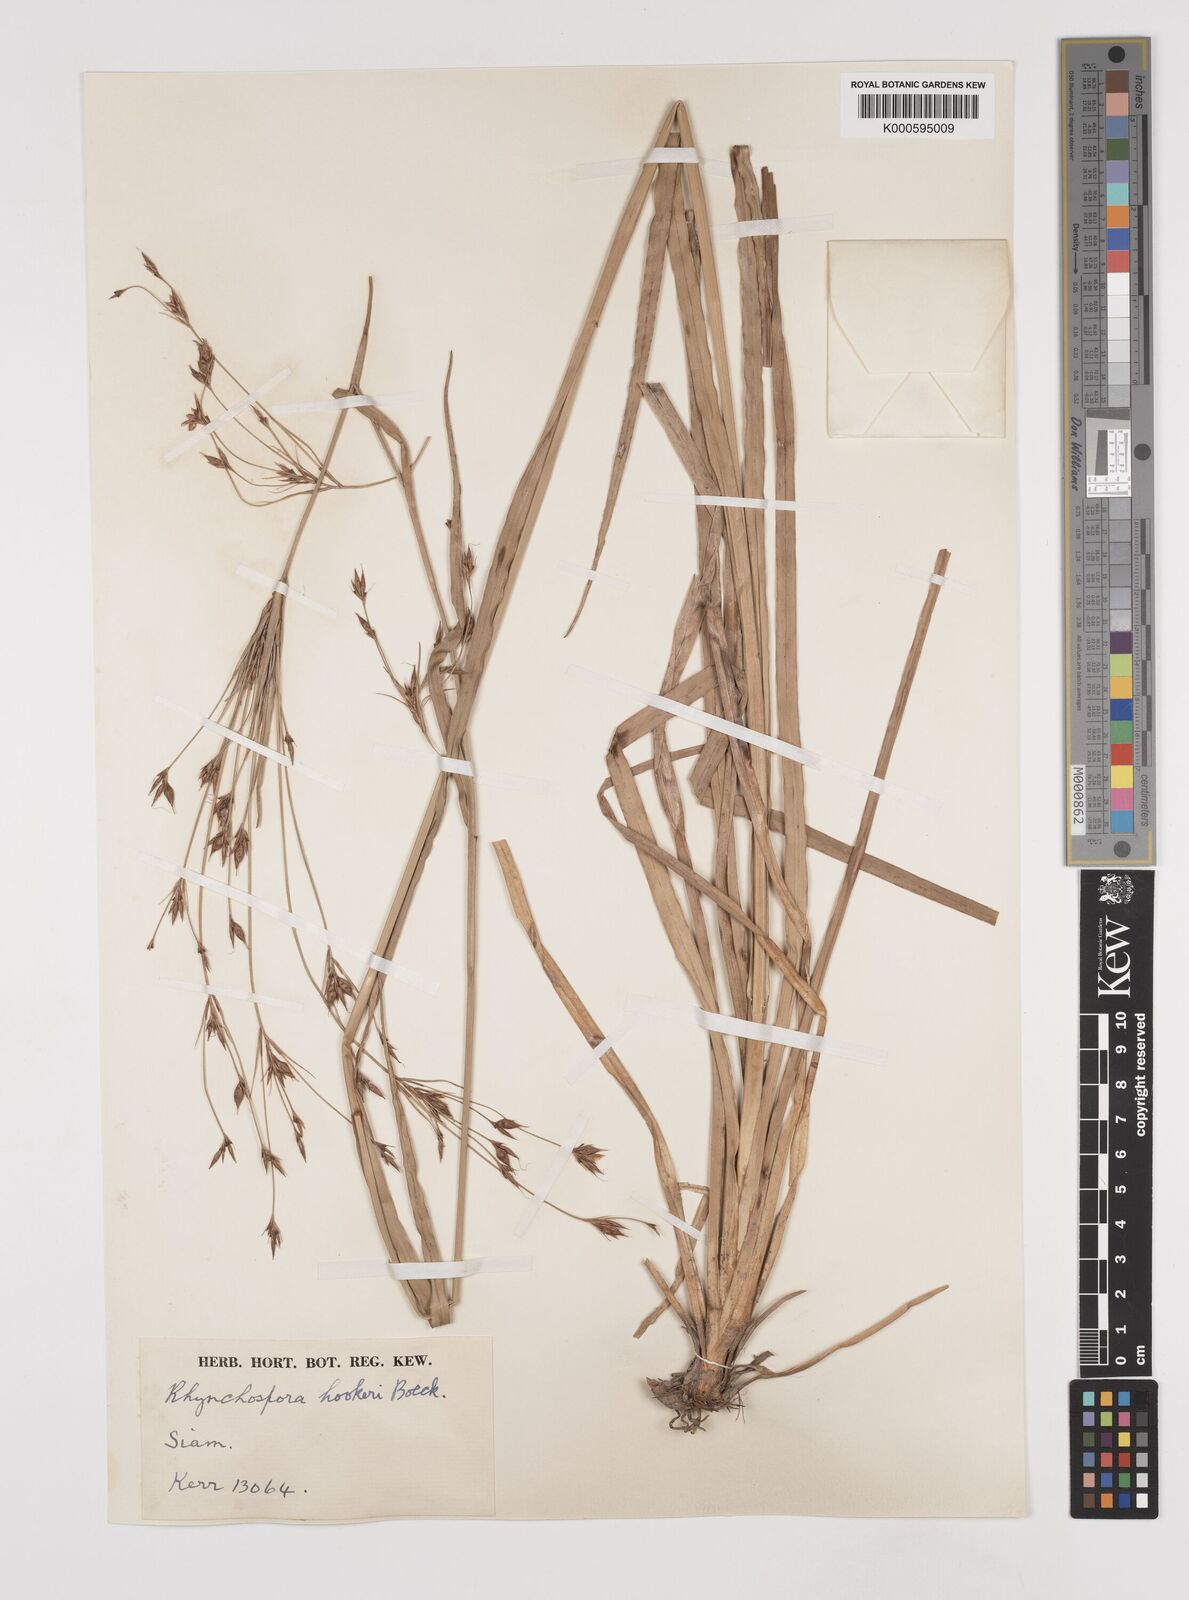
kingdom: Plantae
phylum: Tracheophyta
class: Liliopsida
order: Poales
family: Cyperaceae
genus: Rhynchospora
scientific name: Rhynchospora hookeri
